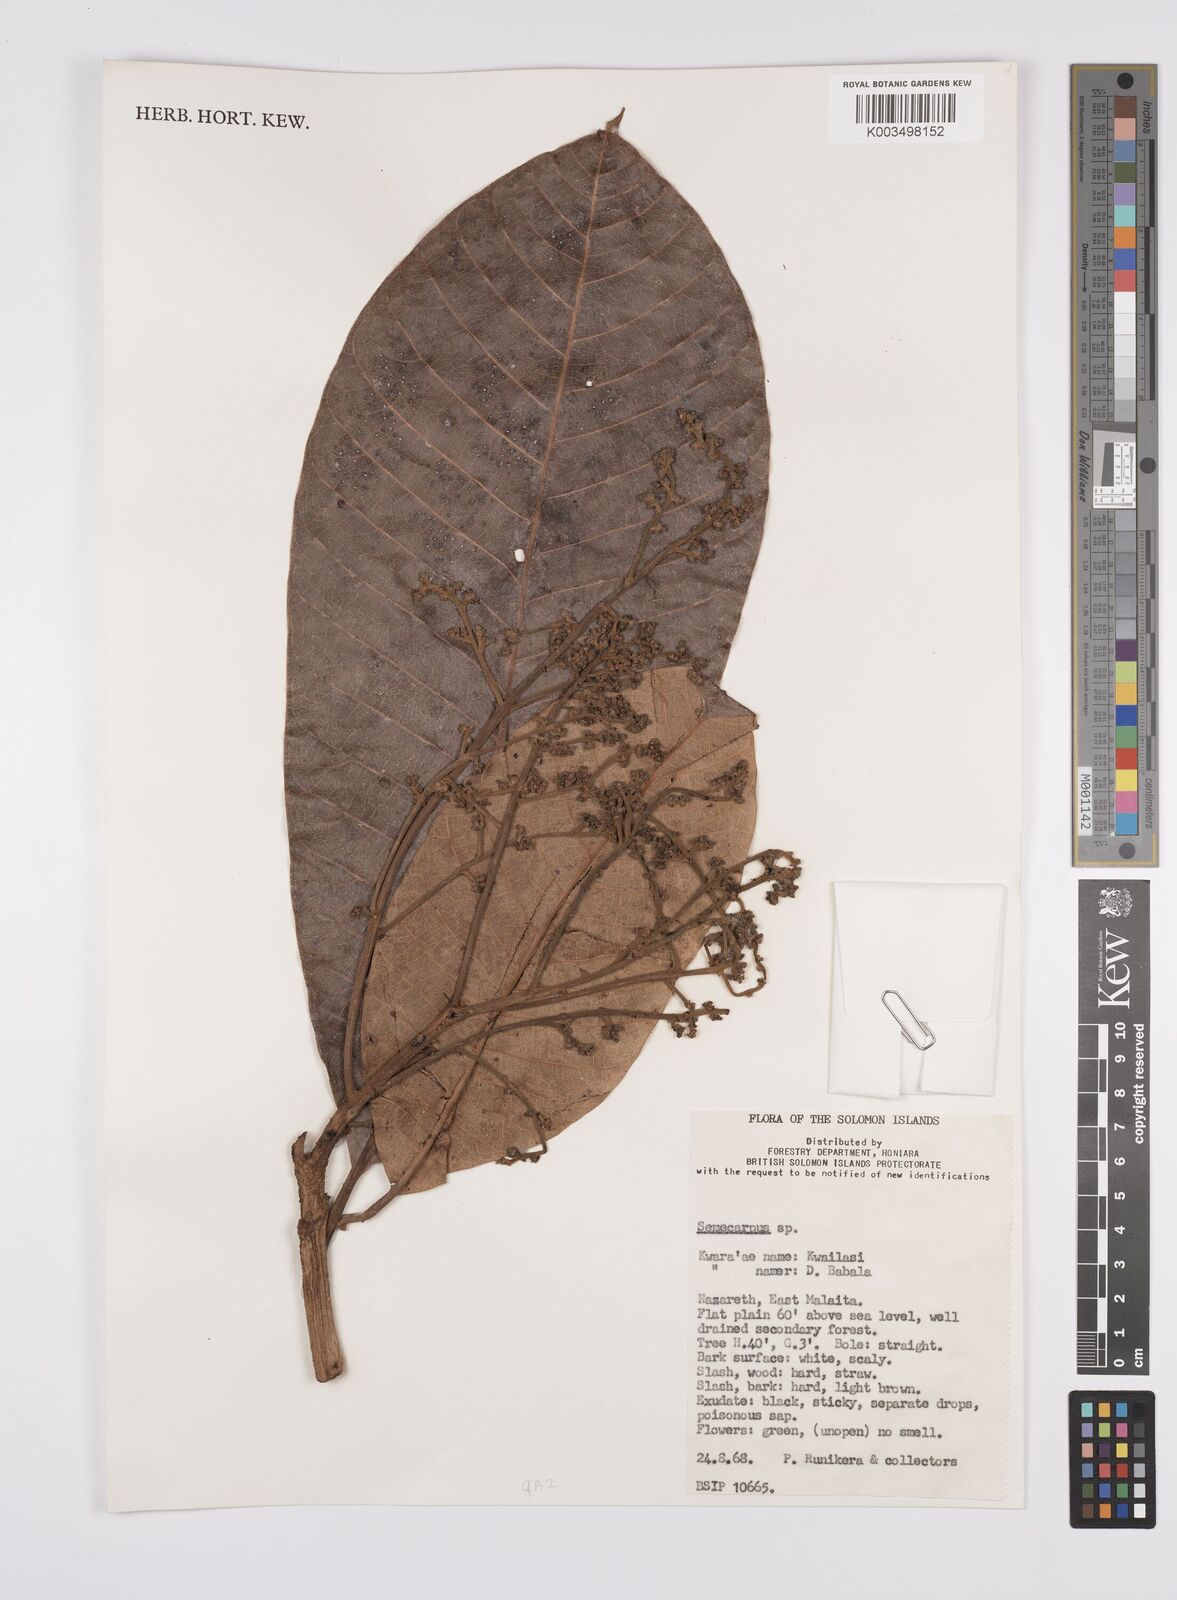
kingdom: Plantae
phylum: Tracheophyta
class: Magnoliopsida
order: Sapindales
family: Anacardiaceae
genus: Semecarpus
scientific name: Semecarpus
